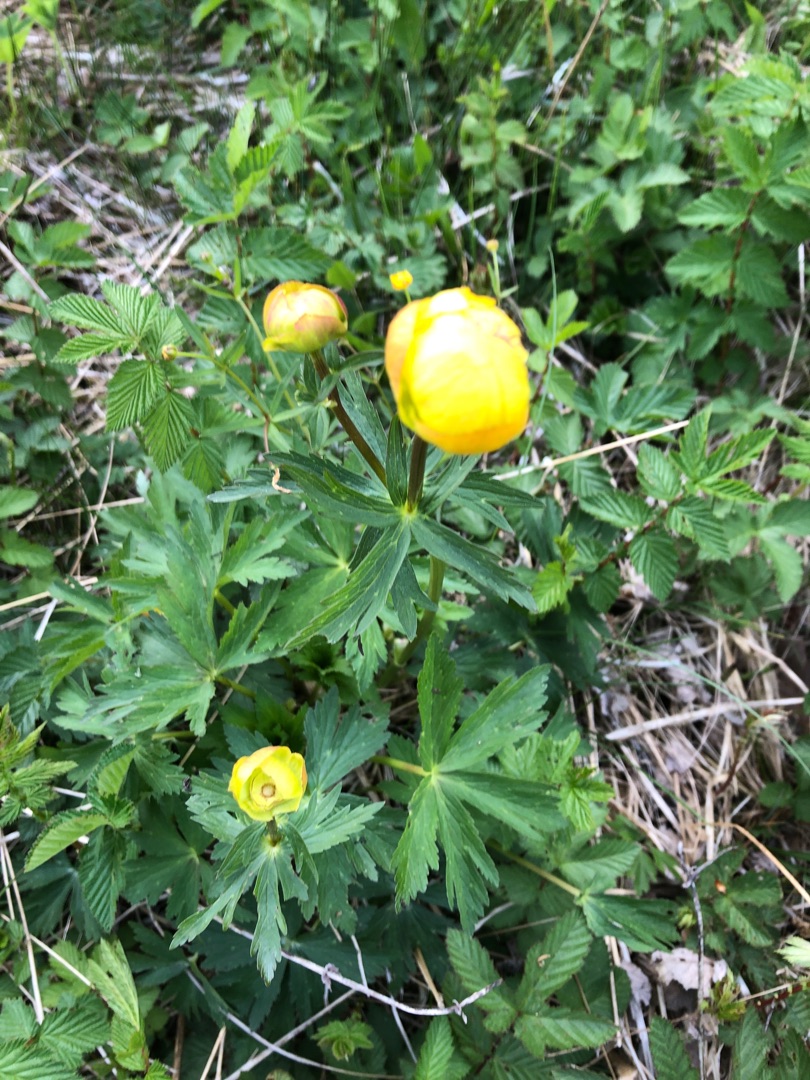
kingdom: Plantae
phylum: Tracheophyta
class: Magnoliopsida
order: Ranunculales
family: Ranunculaceae
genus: Trollius
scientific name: Trollius europaeus
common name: Engblomme
